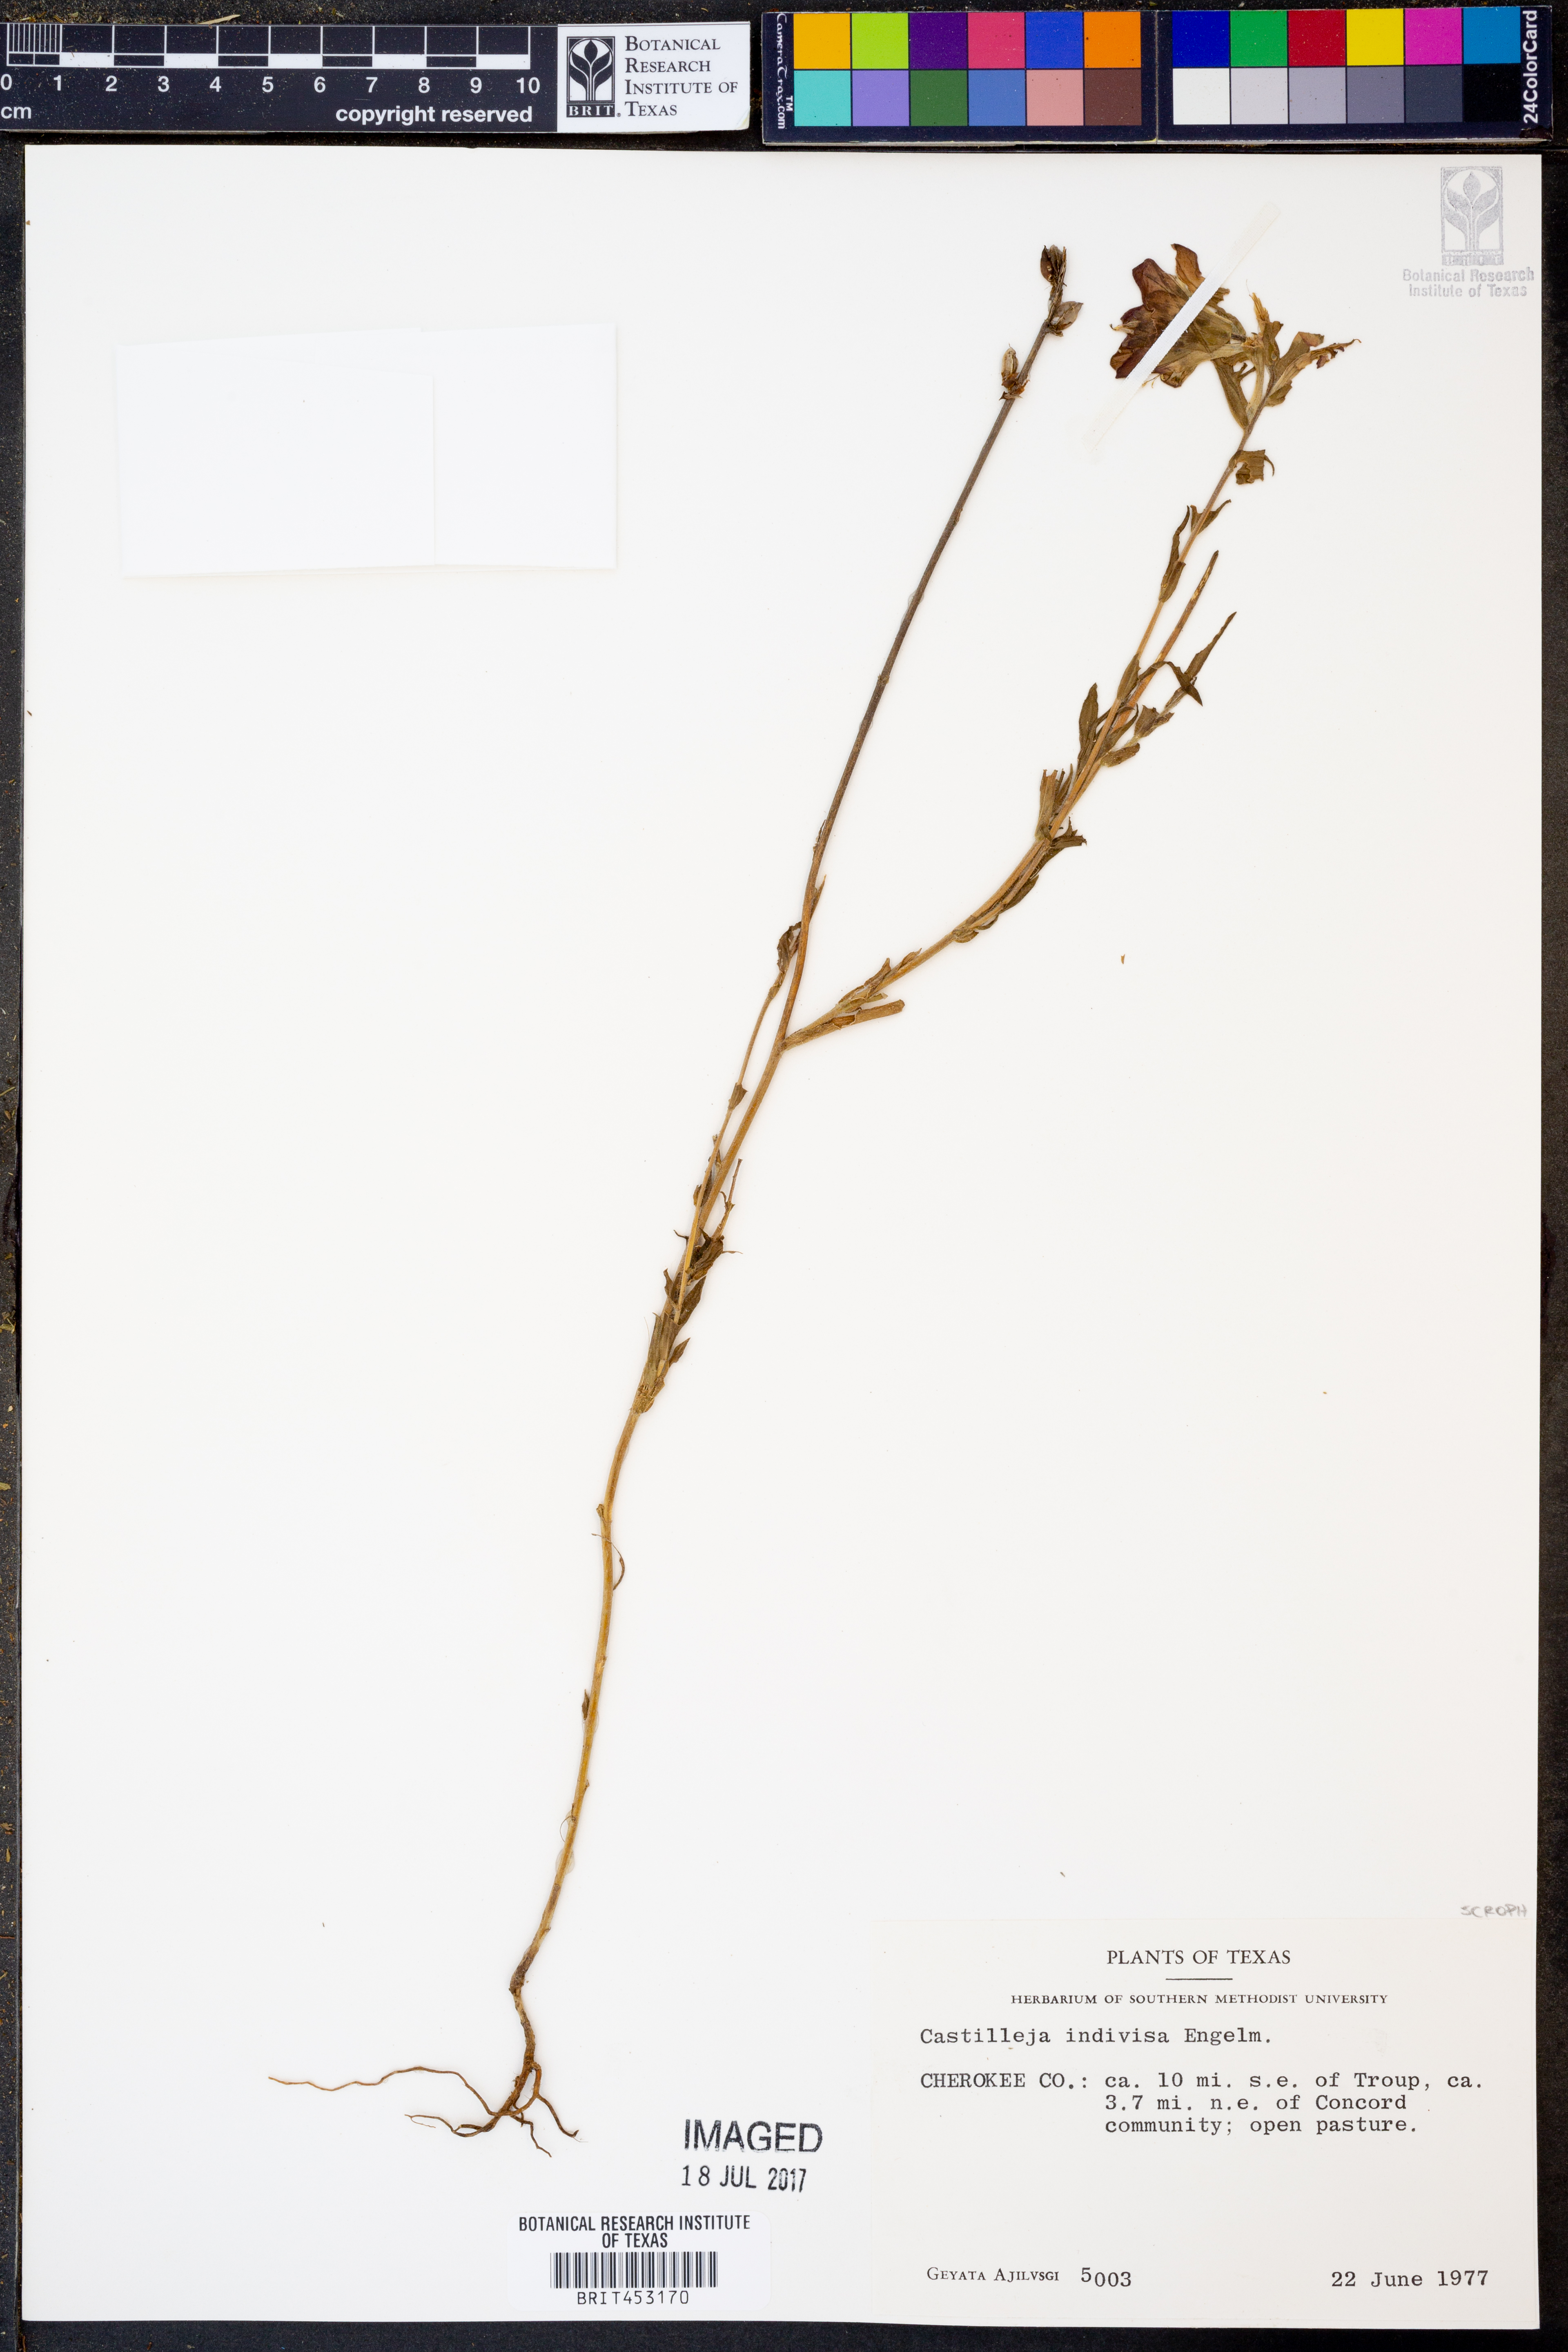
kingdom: Plantae
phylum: Tracheophyta
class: Magnoliopsida
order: Lamiales
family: Orobanchaceae
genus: Castilleja
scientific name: Castilleja indivisa
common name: Texas paintbrush
